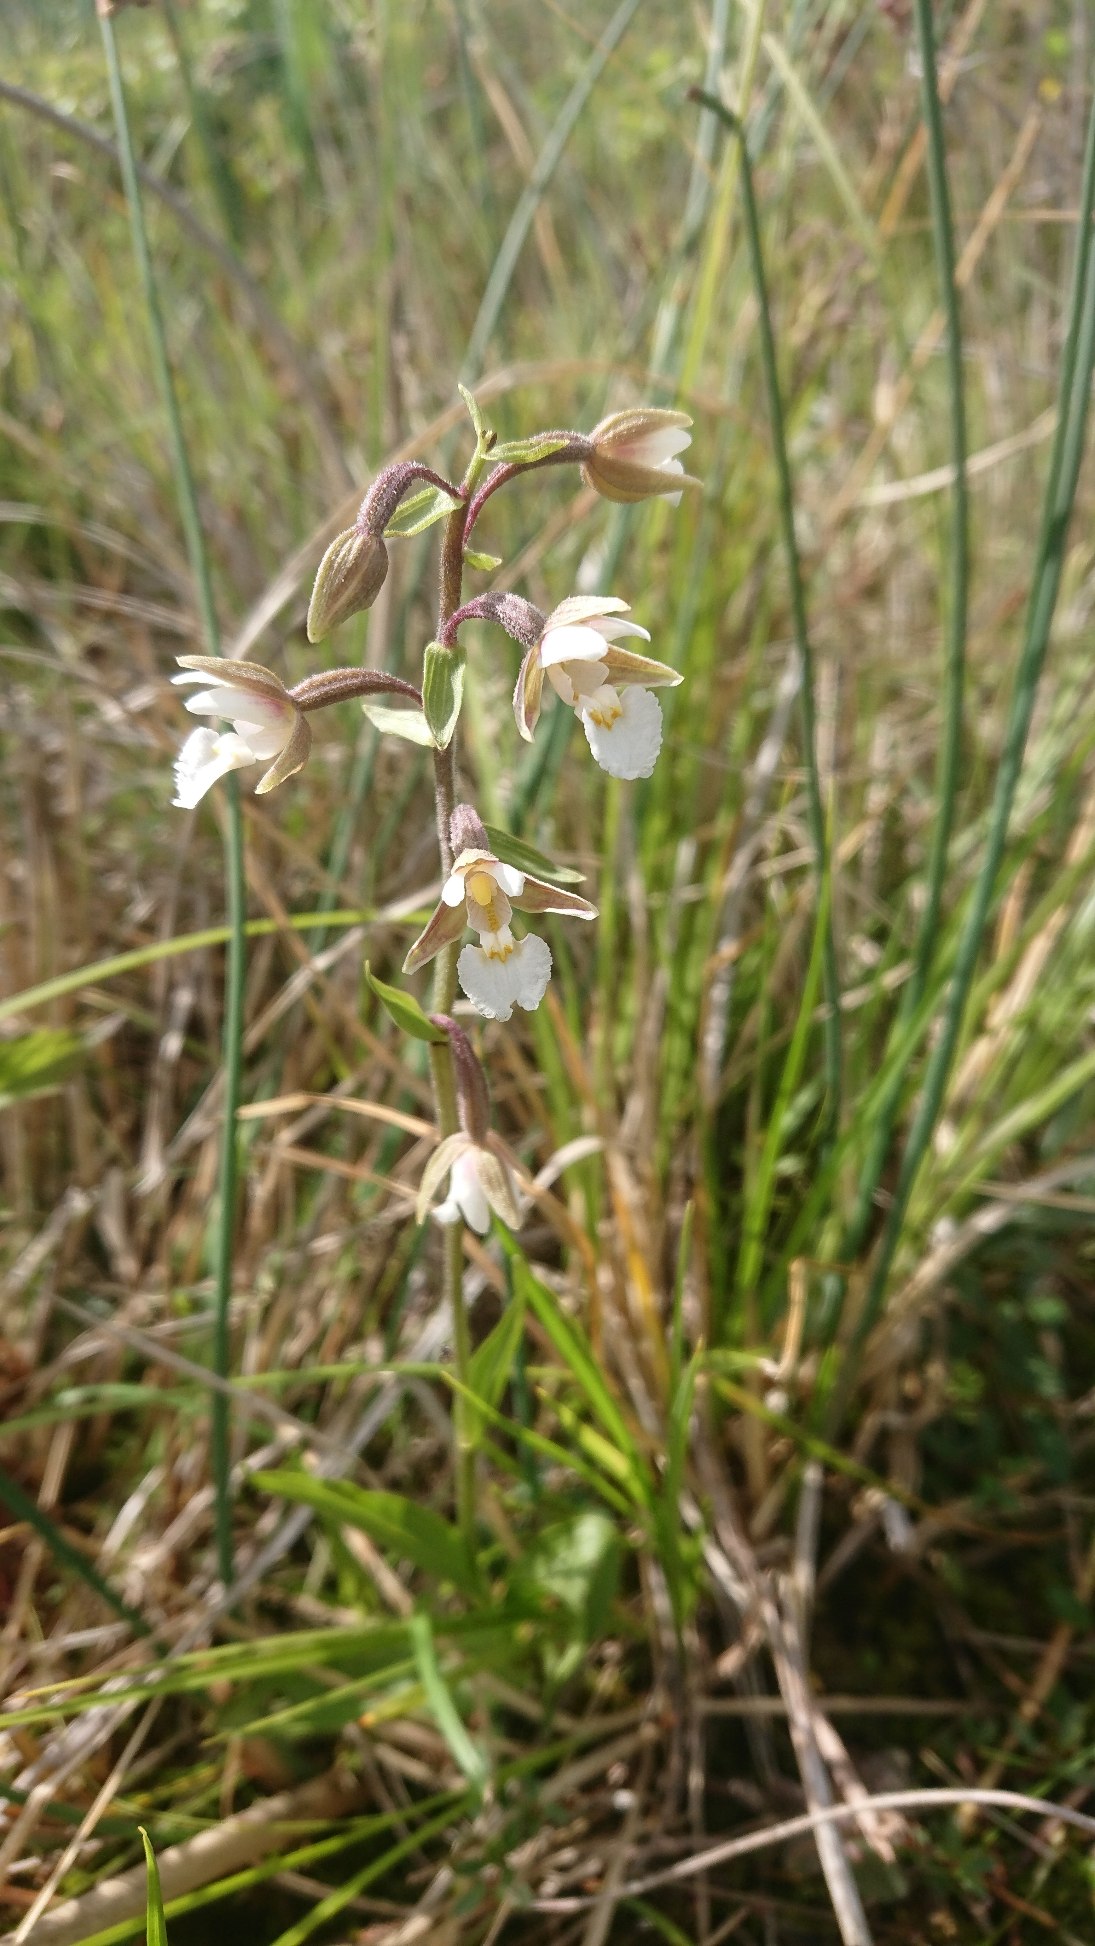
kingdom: Plantae
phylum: Tracheophyta
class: Liliopsida
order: Asparagales
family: Orchidaceae
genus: Epipactis
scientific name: Epipactis palustris
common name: Sump-hullæbe
